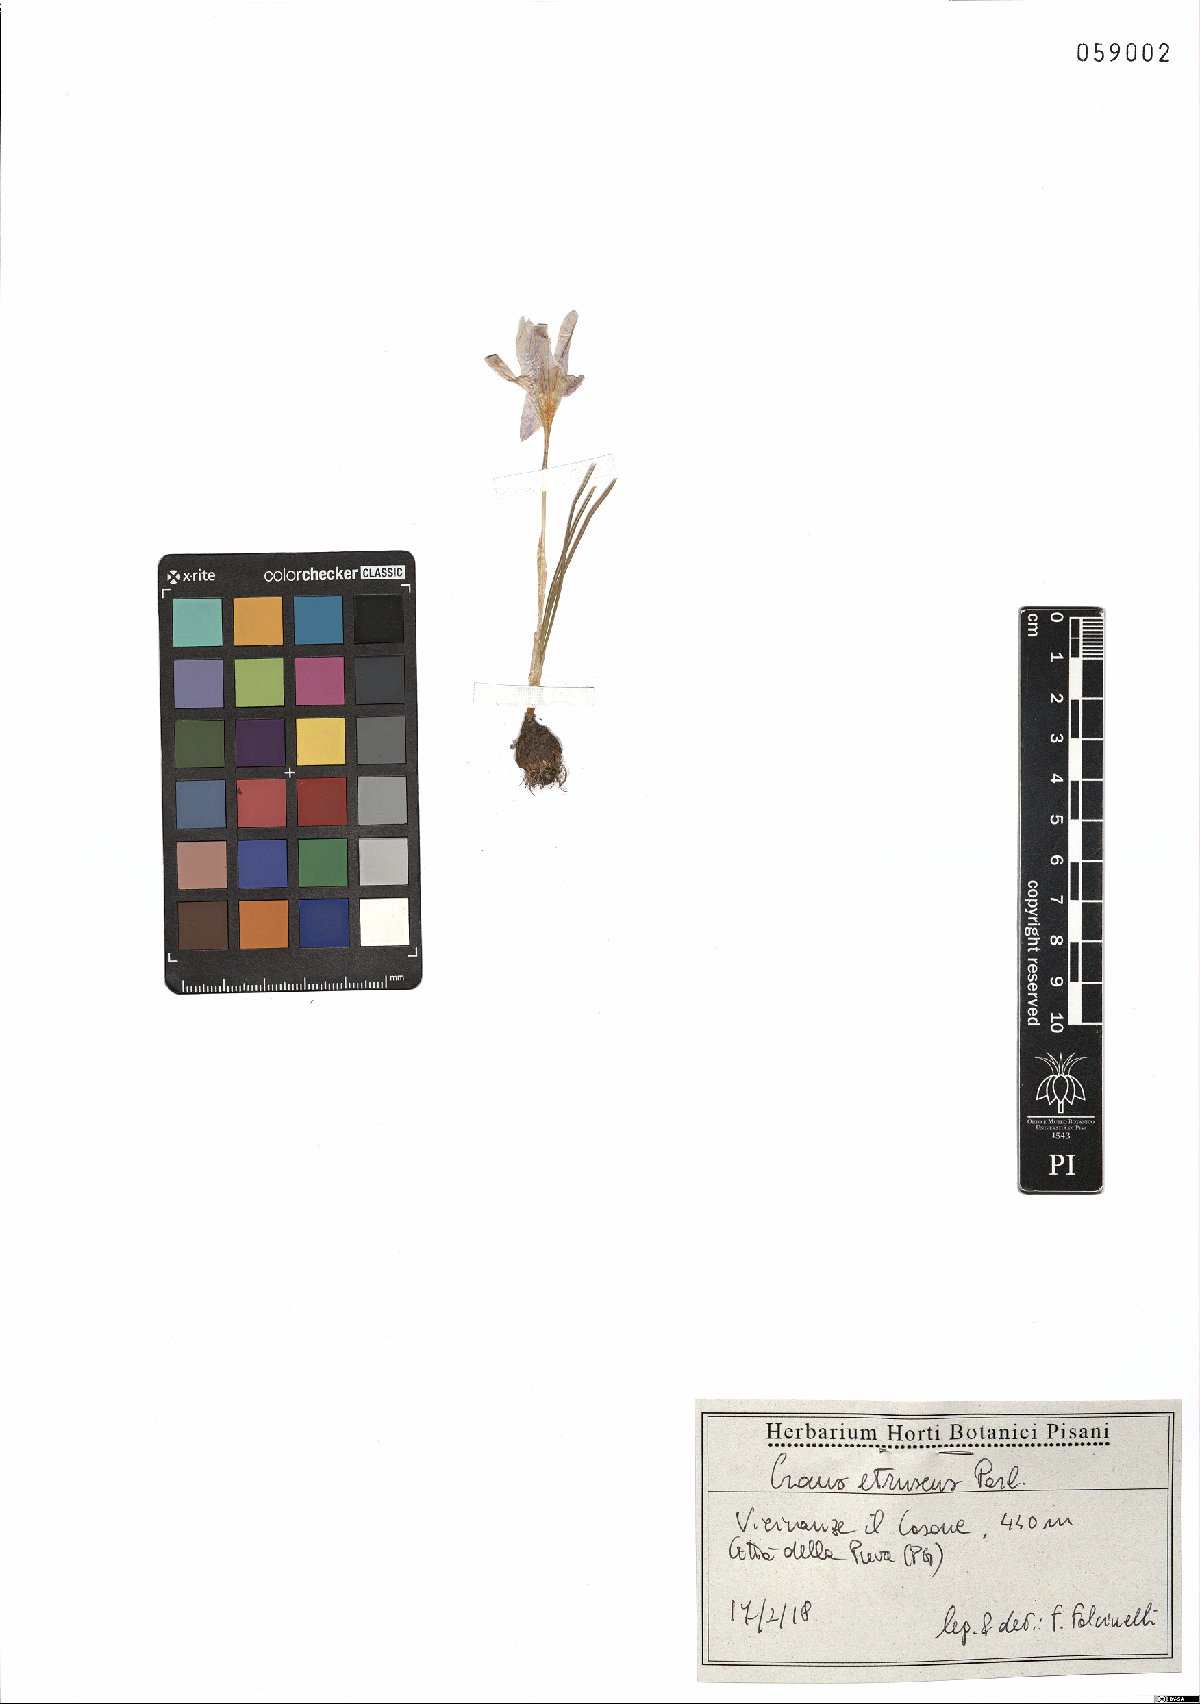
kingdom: Plantae
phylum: Tracheophyta
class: Liliopsida
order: Asparagales
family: Iridaceae
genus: Crocus
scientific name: Crocus etruscus
